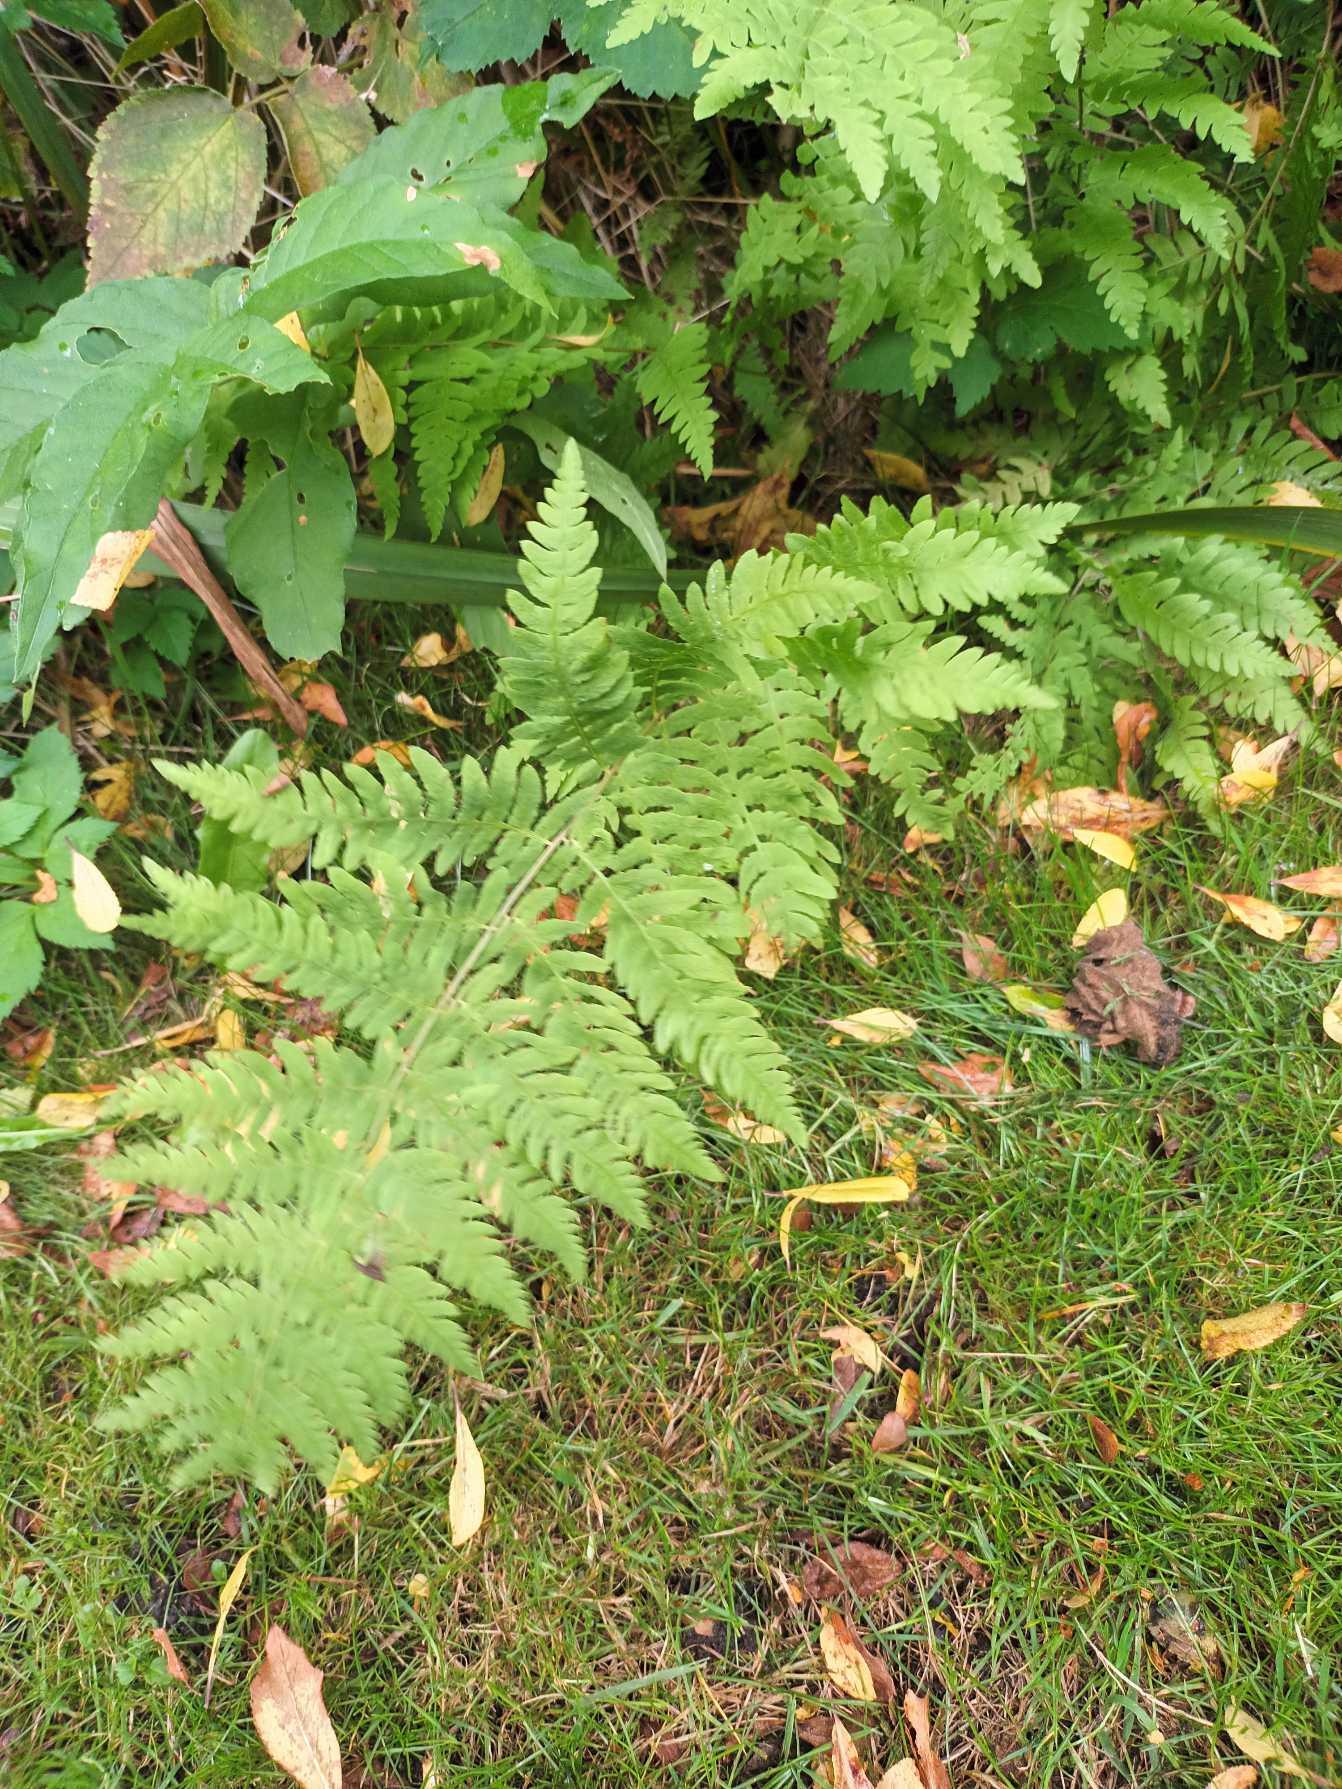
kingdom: Plantae
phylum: Tracheophyta
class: Polypodiopsida
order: Polypodiales
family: Thelypteridaceae
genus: Thelypteris
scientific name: Thelypteris palustris
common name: Kærmangeløv
